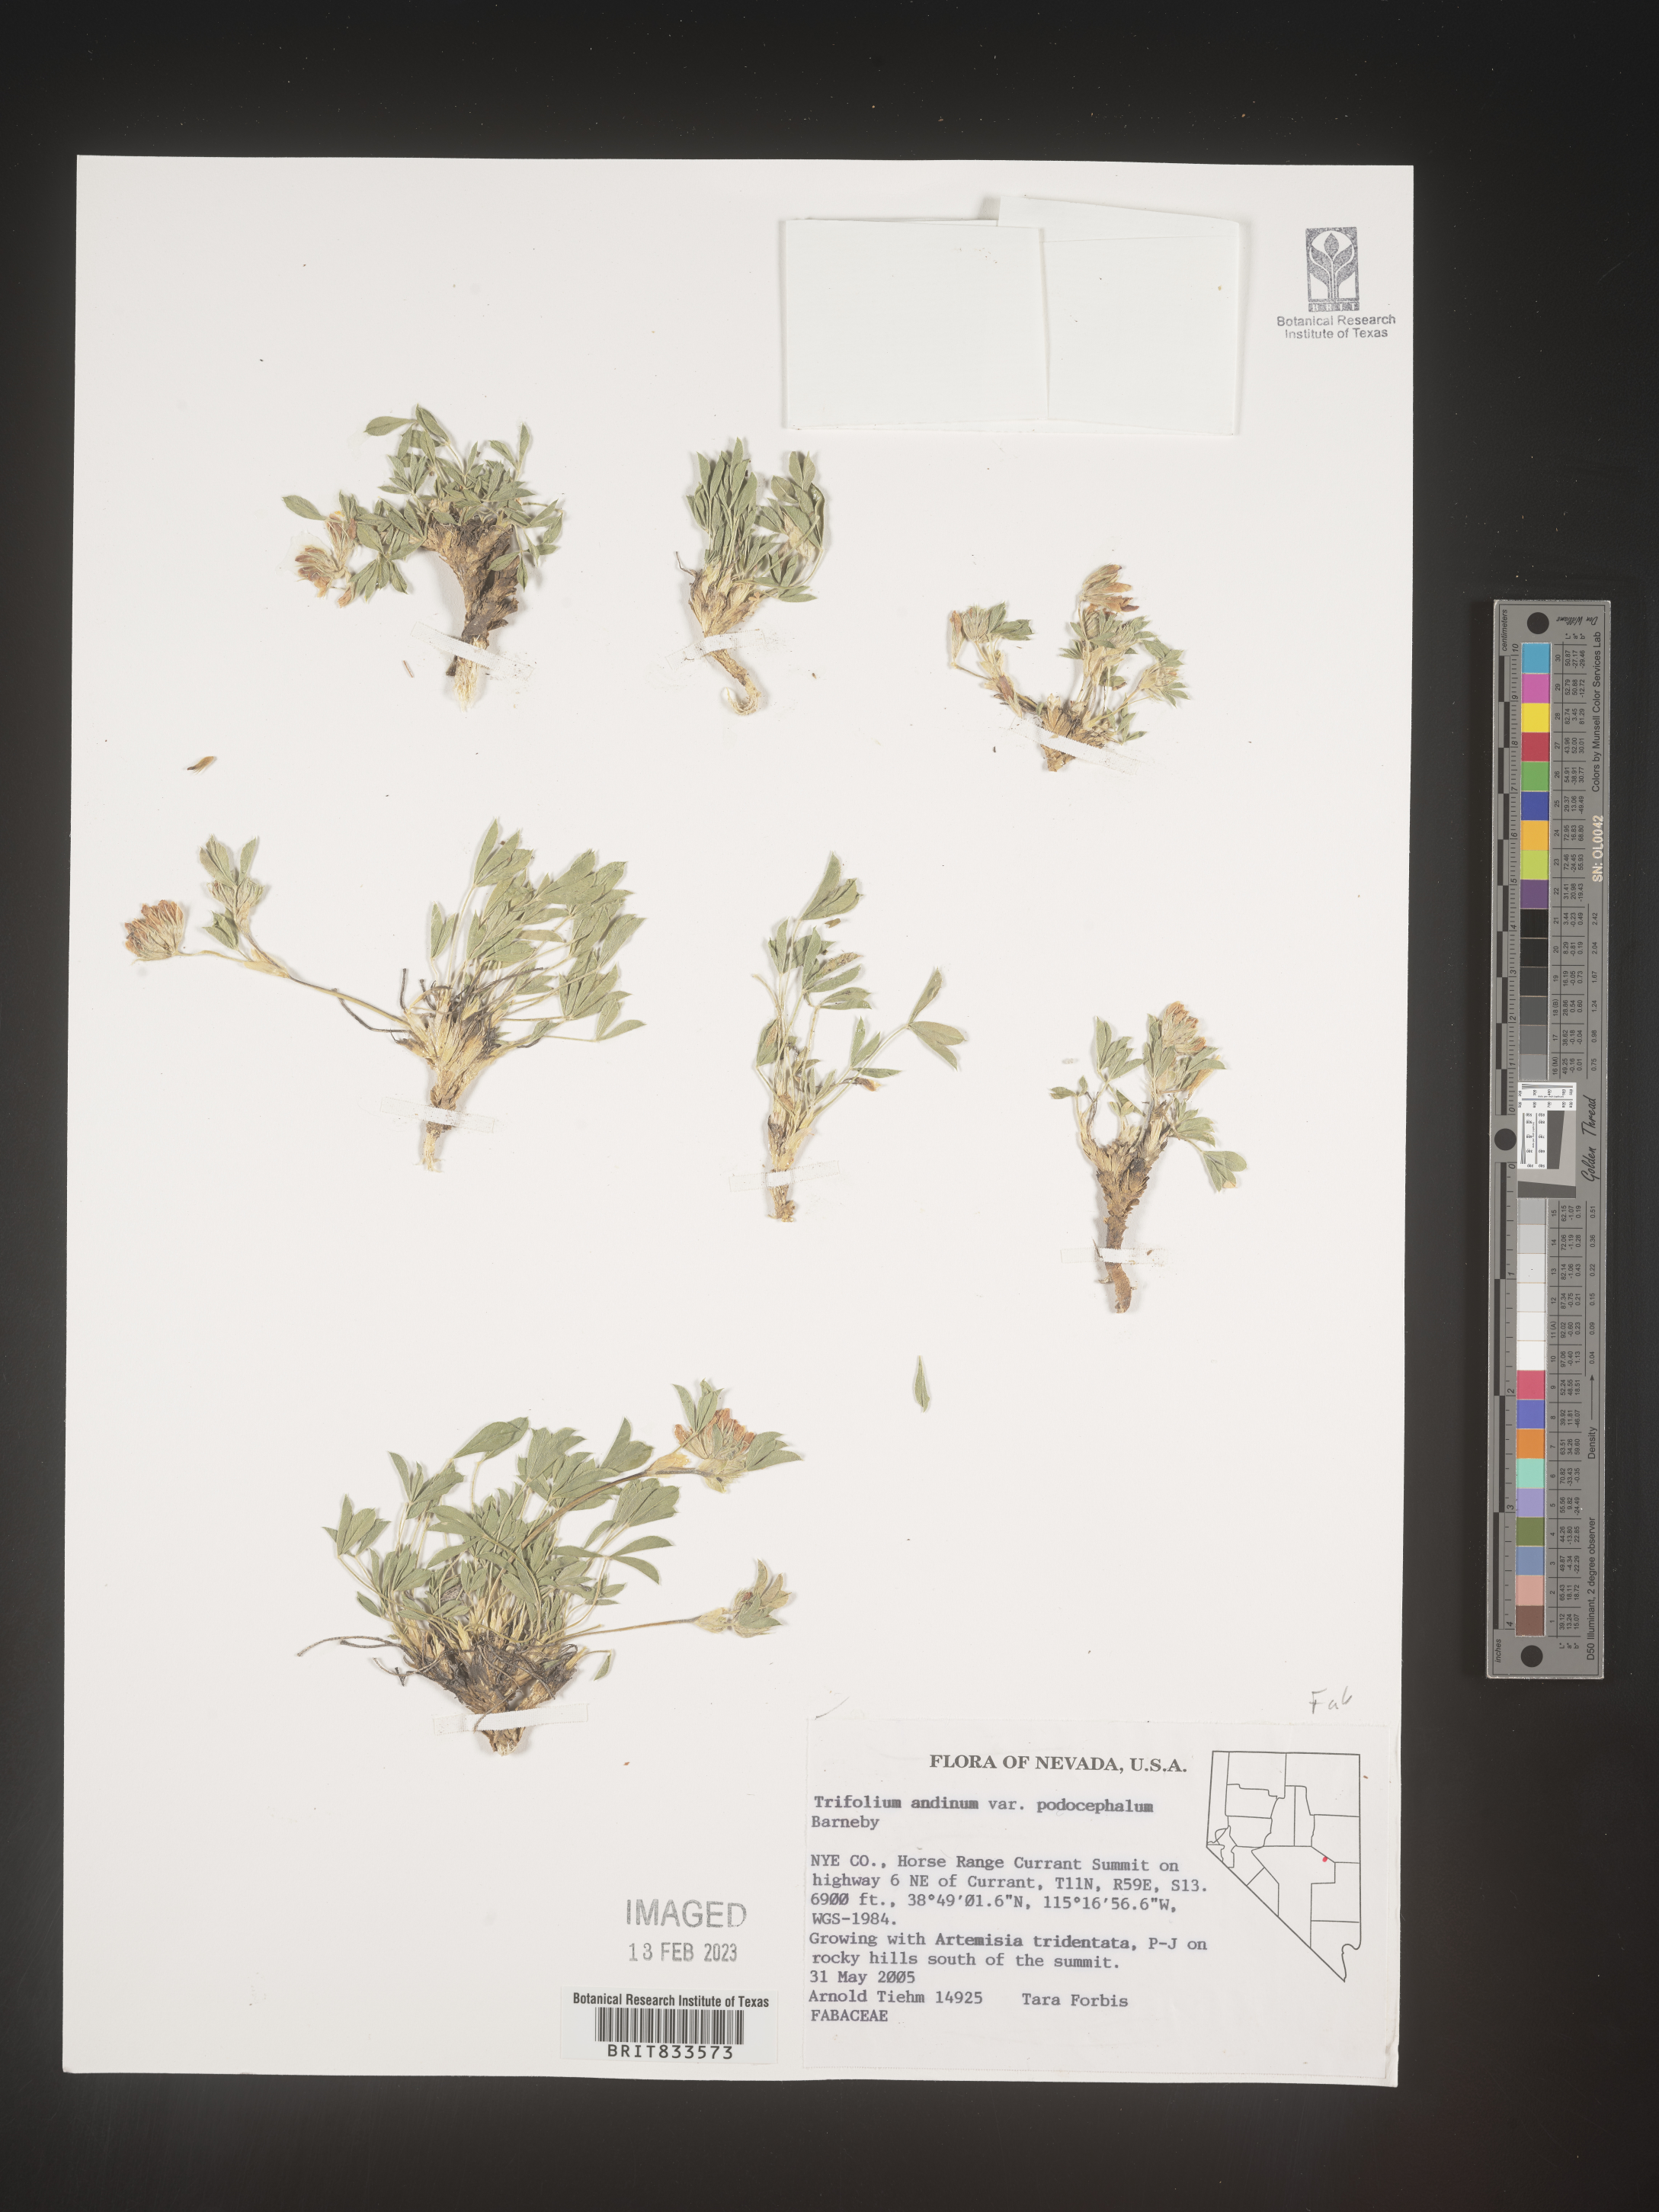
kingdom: Plantae
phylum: Tracheophyta
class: Magnoliopsida
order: Fabales
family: Fabaceae
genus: Trifolium
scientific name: Trifolium
